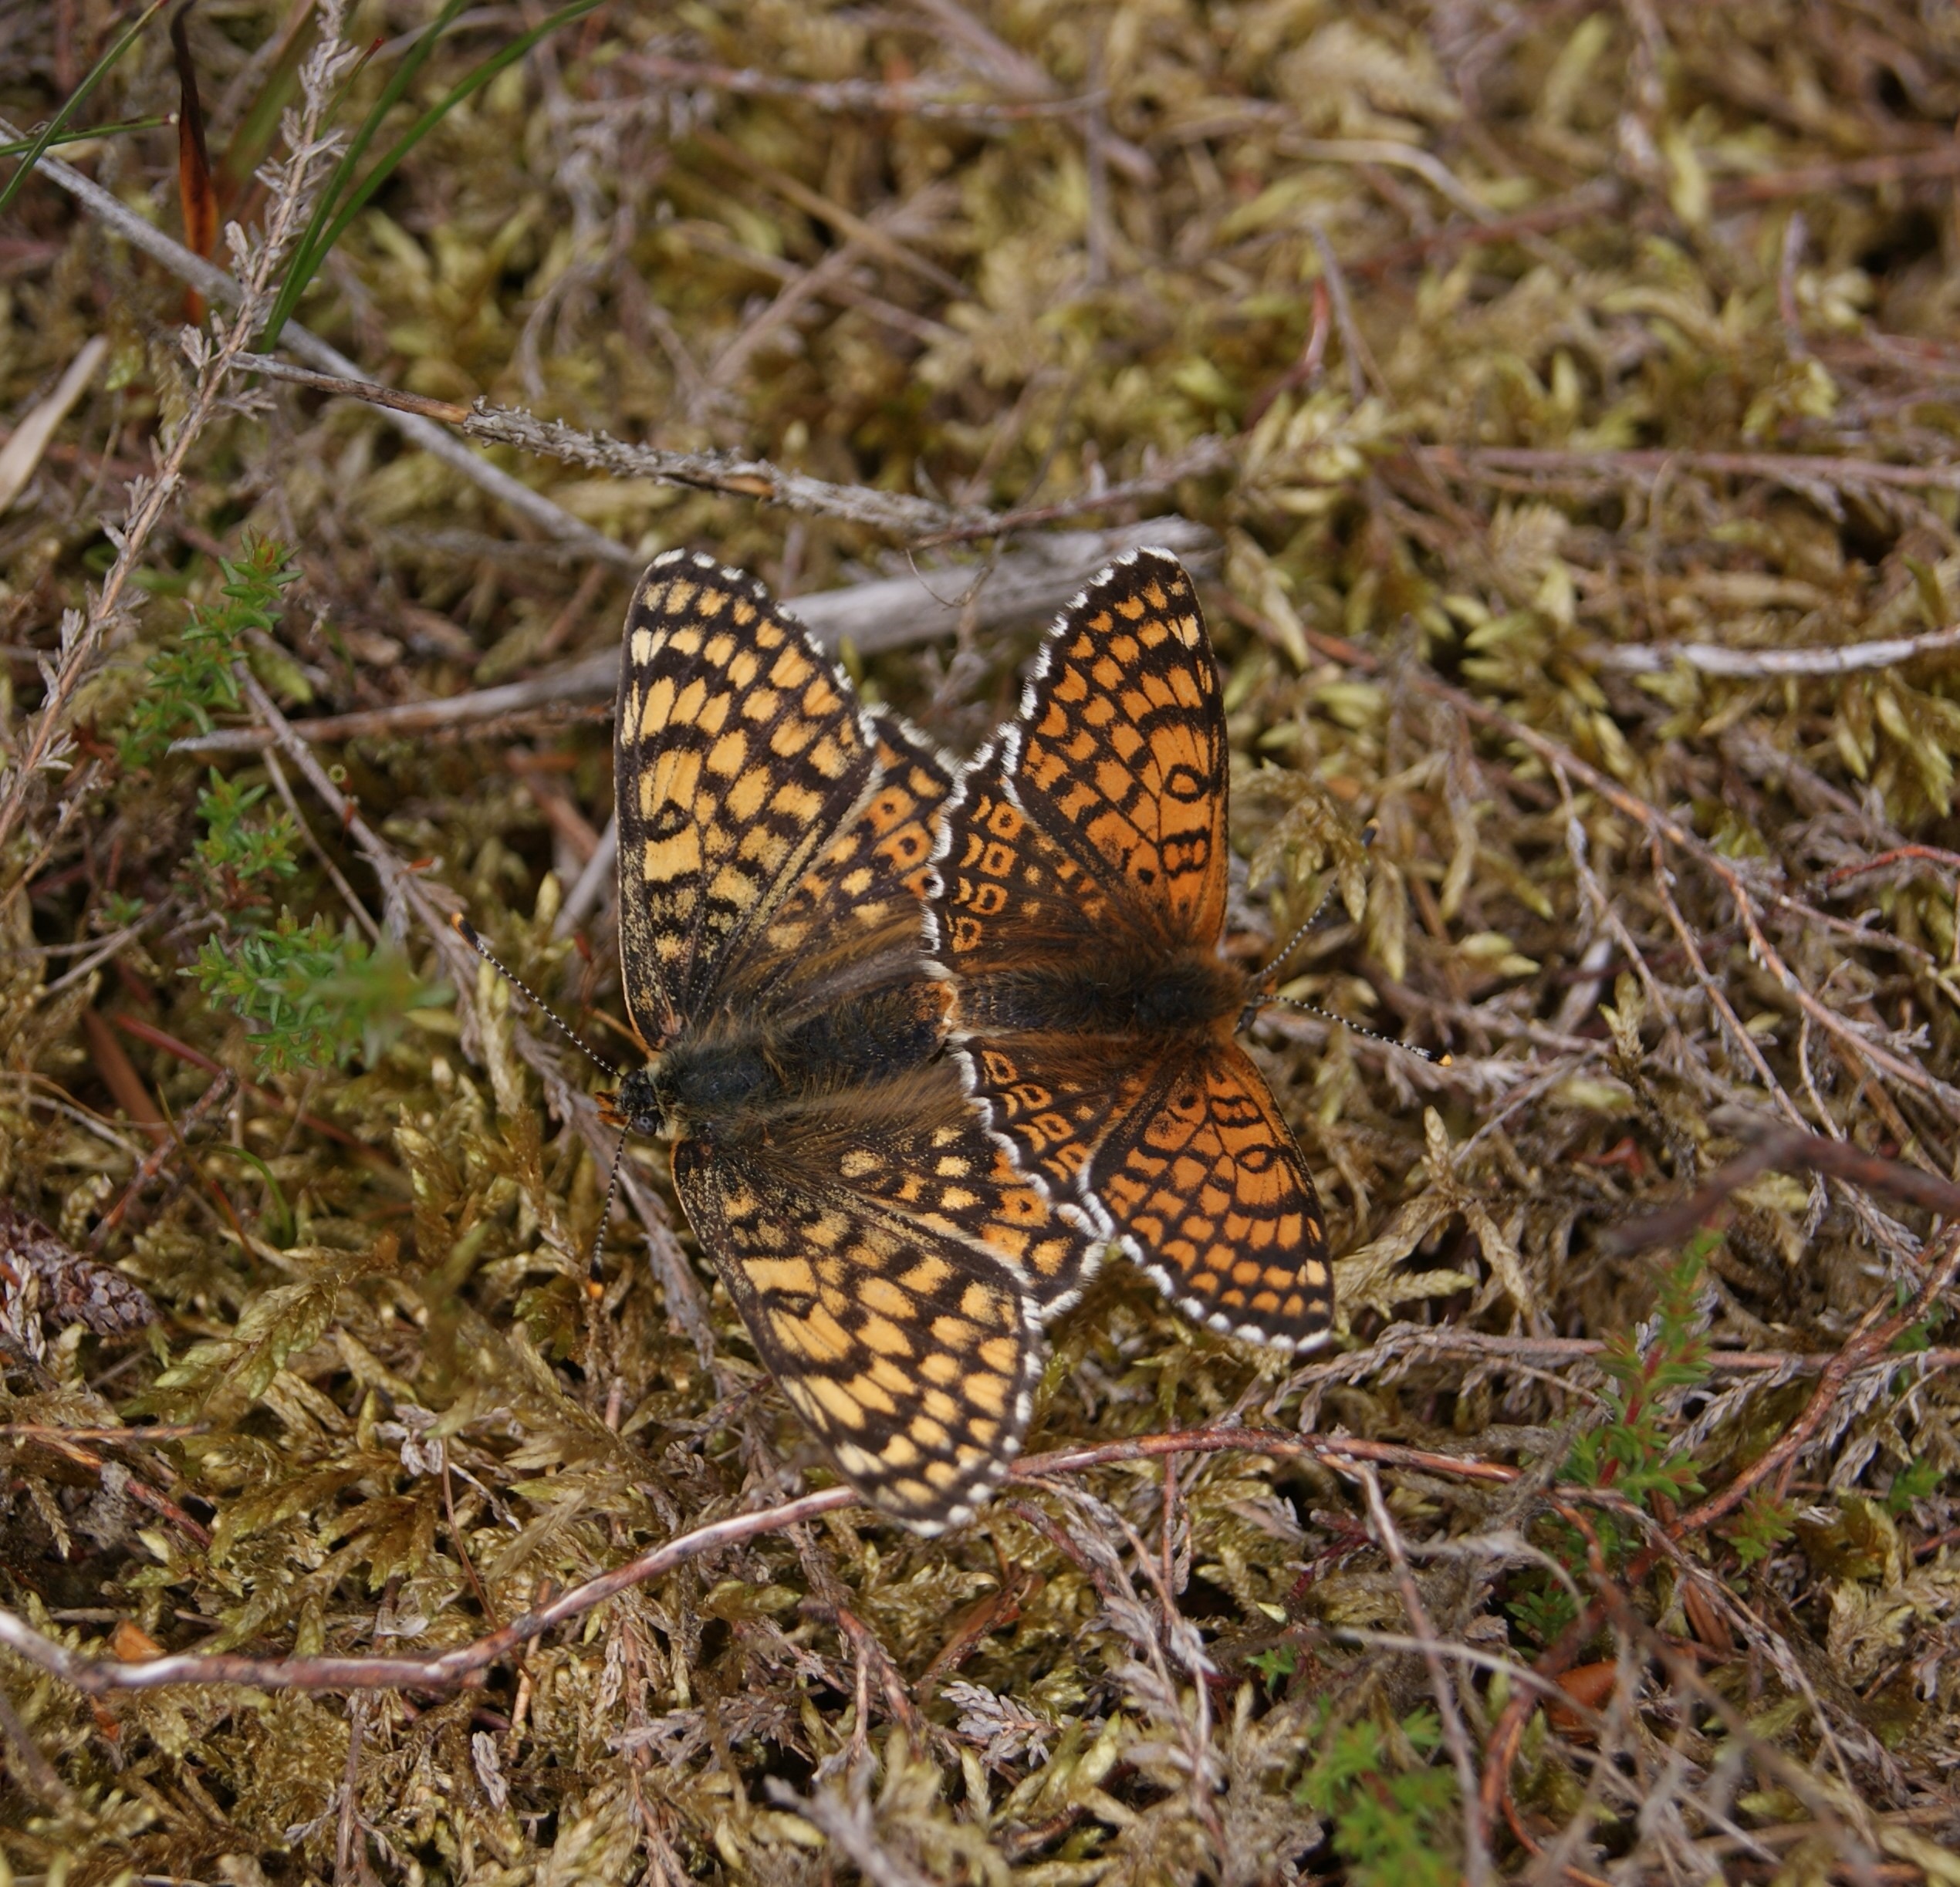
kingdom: Animalia
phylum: Arthropoda
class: Insecta
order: Lepidoptera
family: Nymphalidae
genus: Melitaea
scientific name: Melitaea cinxia
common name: Okkergul pletvinge
